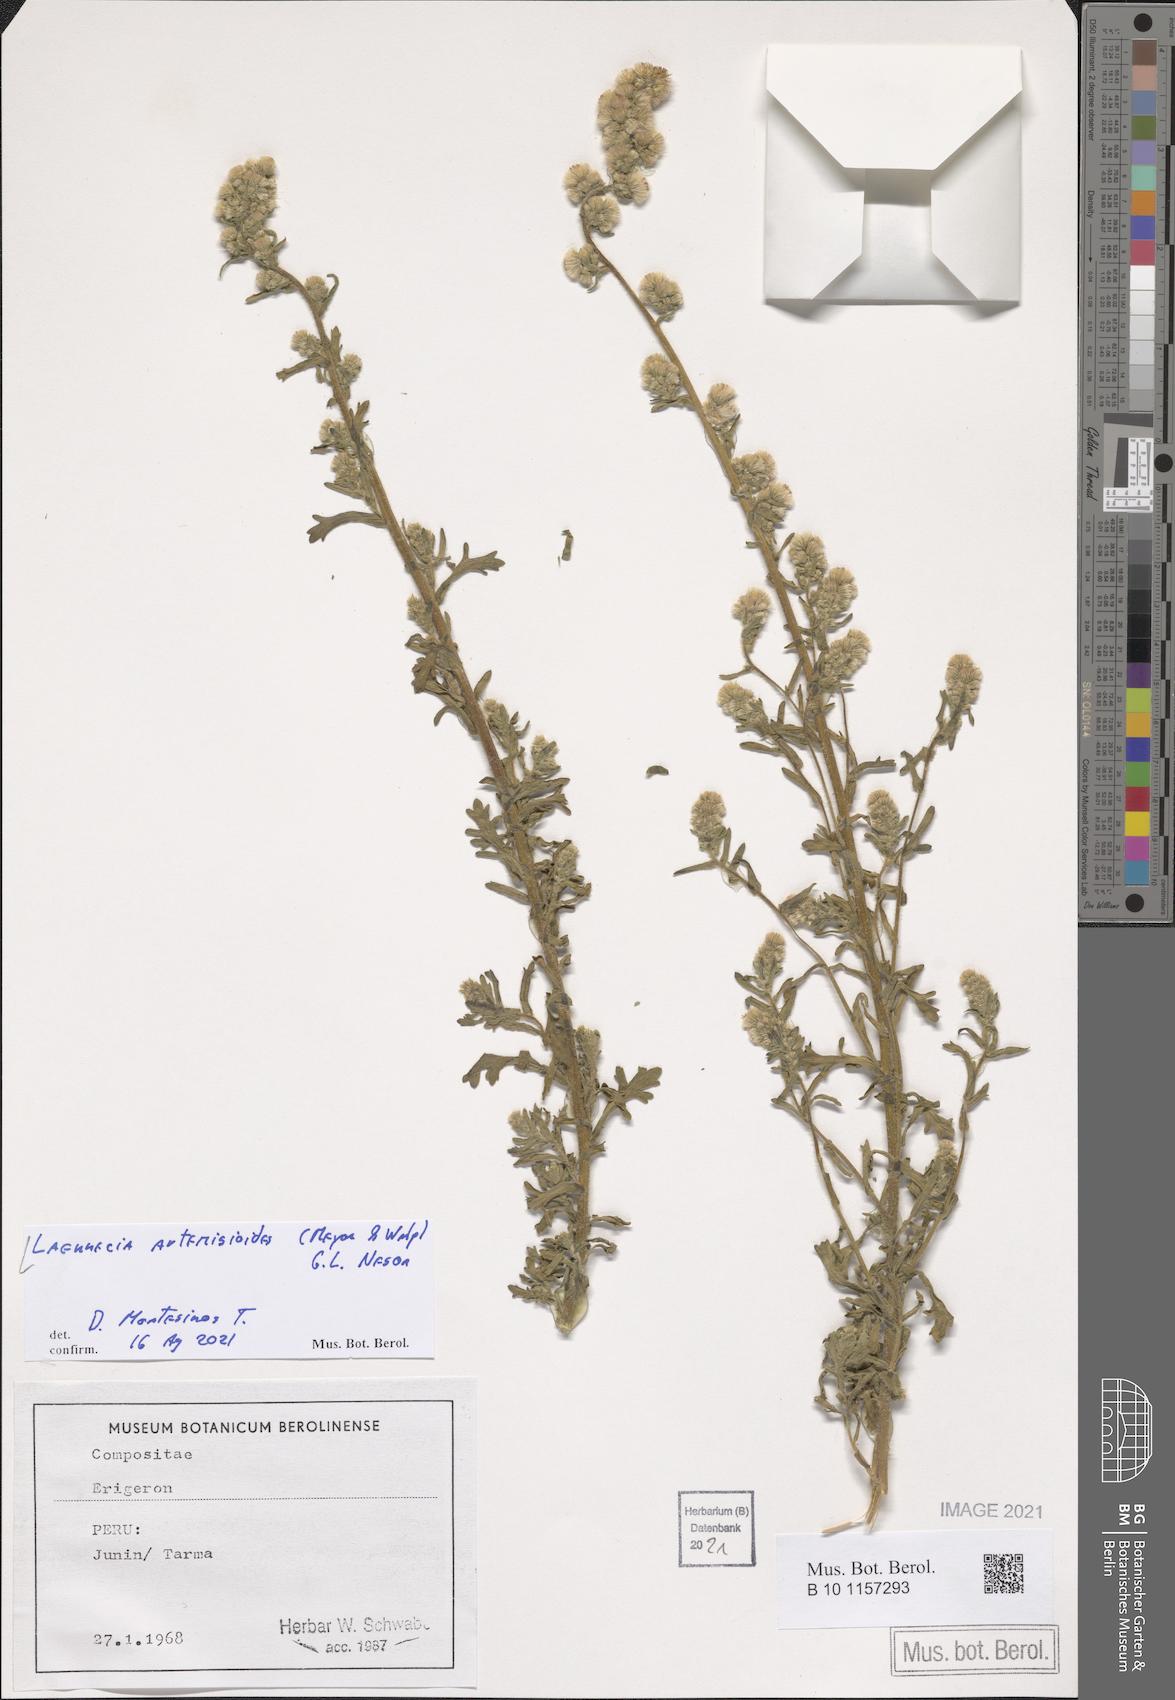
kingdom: Plantae
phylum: Tracheophyta
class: Magnoliopsida
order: Asterales
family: Asteraceae
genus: Laennecia
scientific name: Laennecia artemisiifolia
